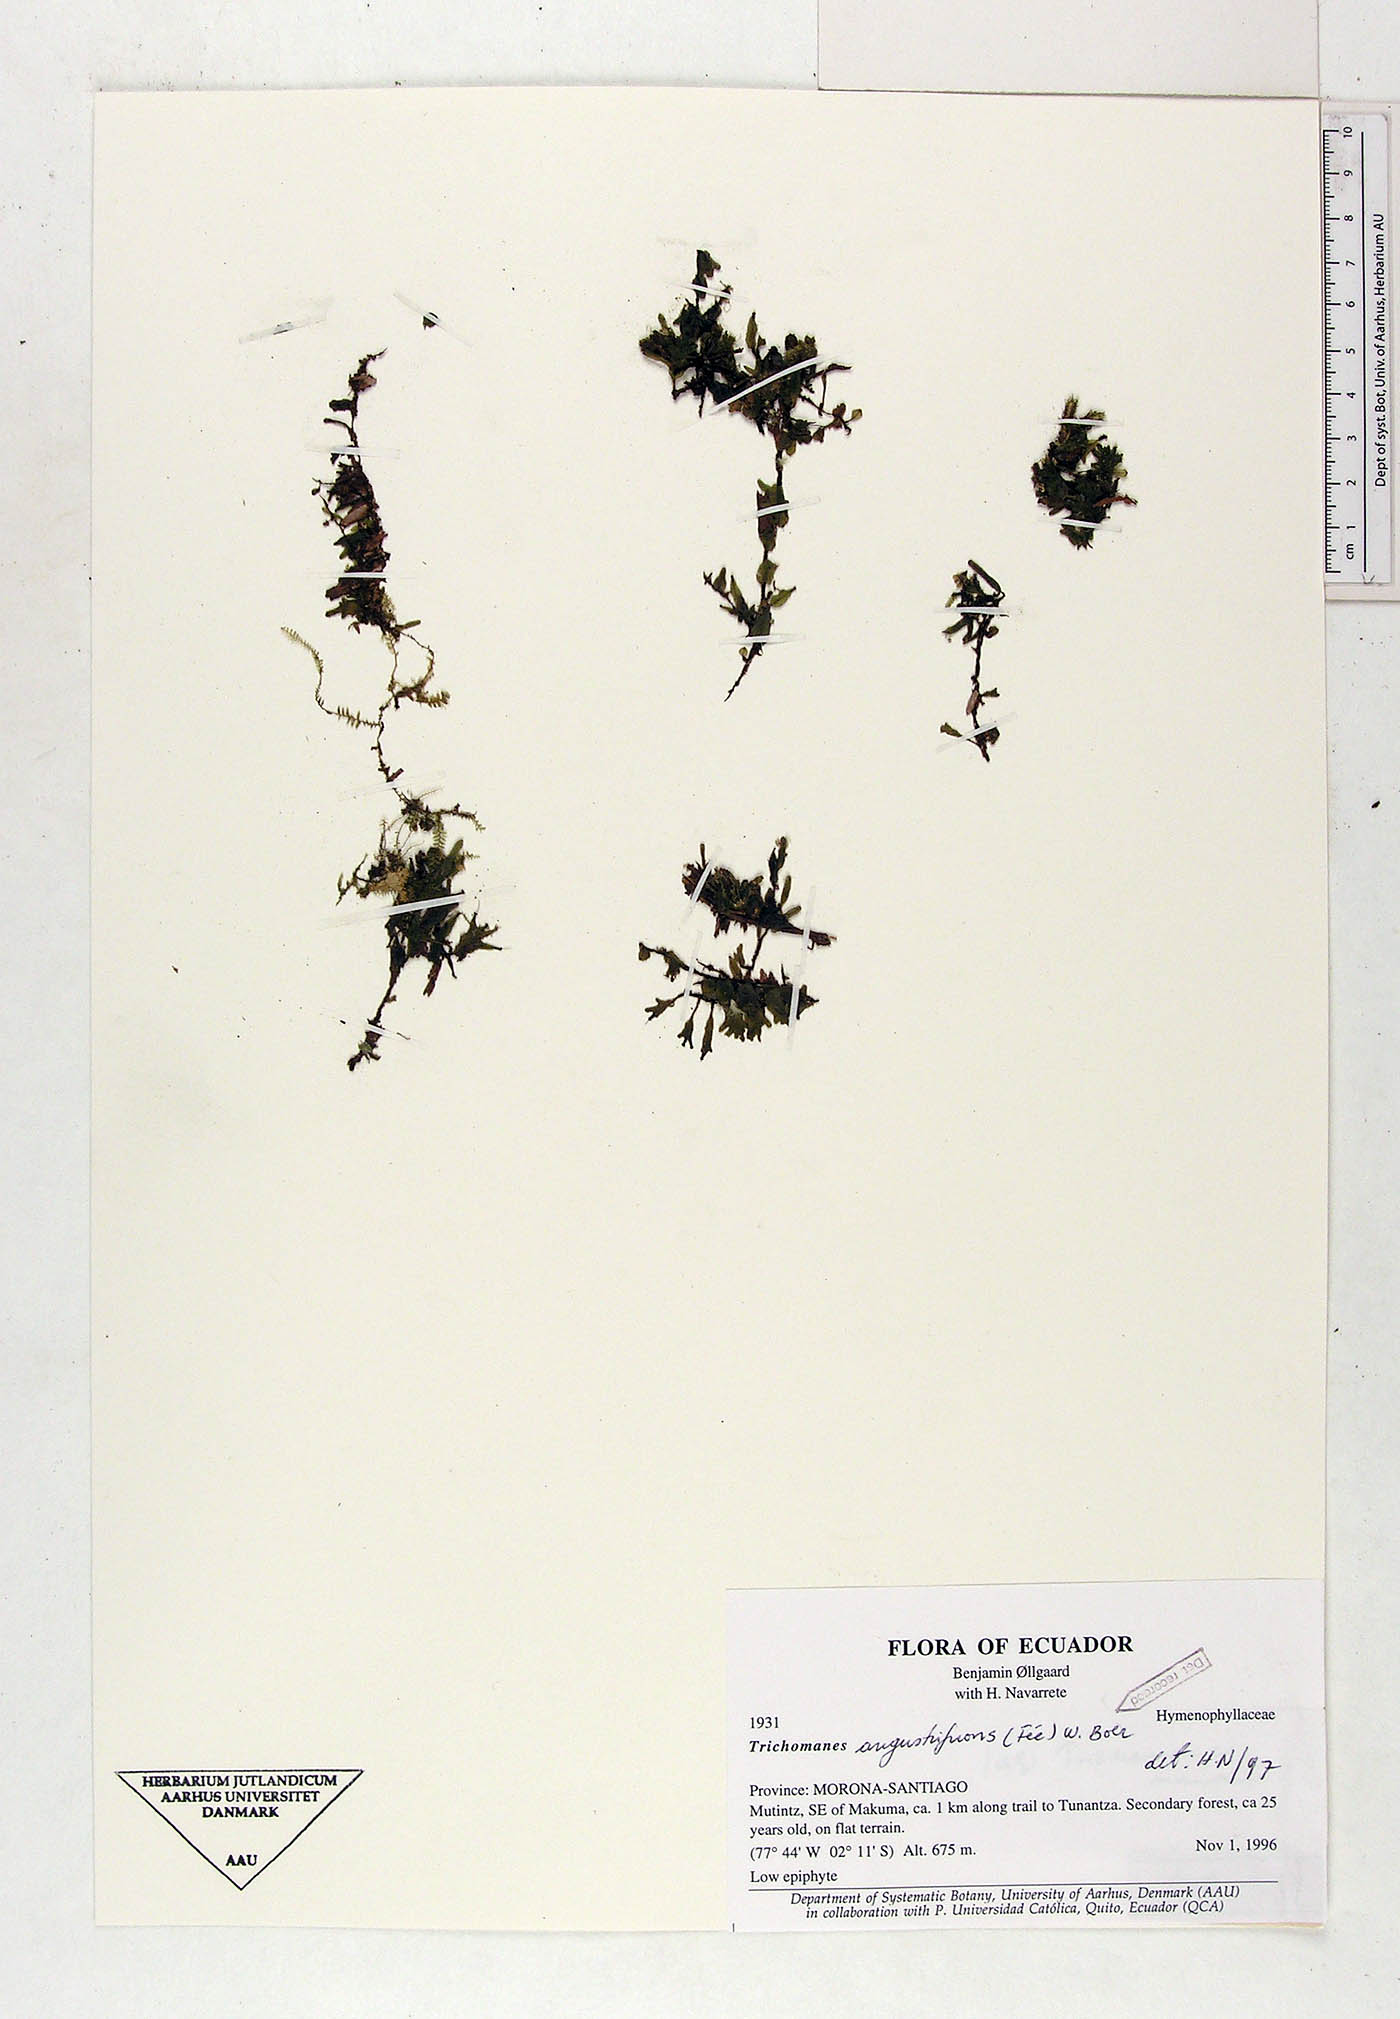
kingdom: Plantae
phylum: Tracheophyta
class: Polypodiopsida
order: Hymenophyllales
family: Hymenophyllaceae
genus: Didymoglossum
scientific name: Didymoglossum angustifrons
